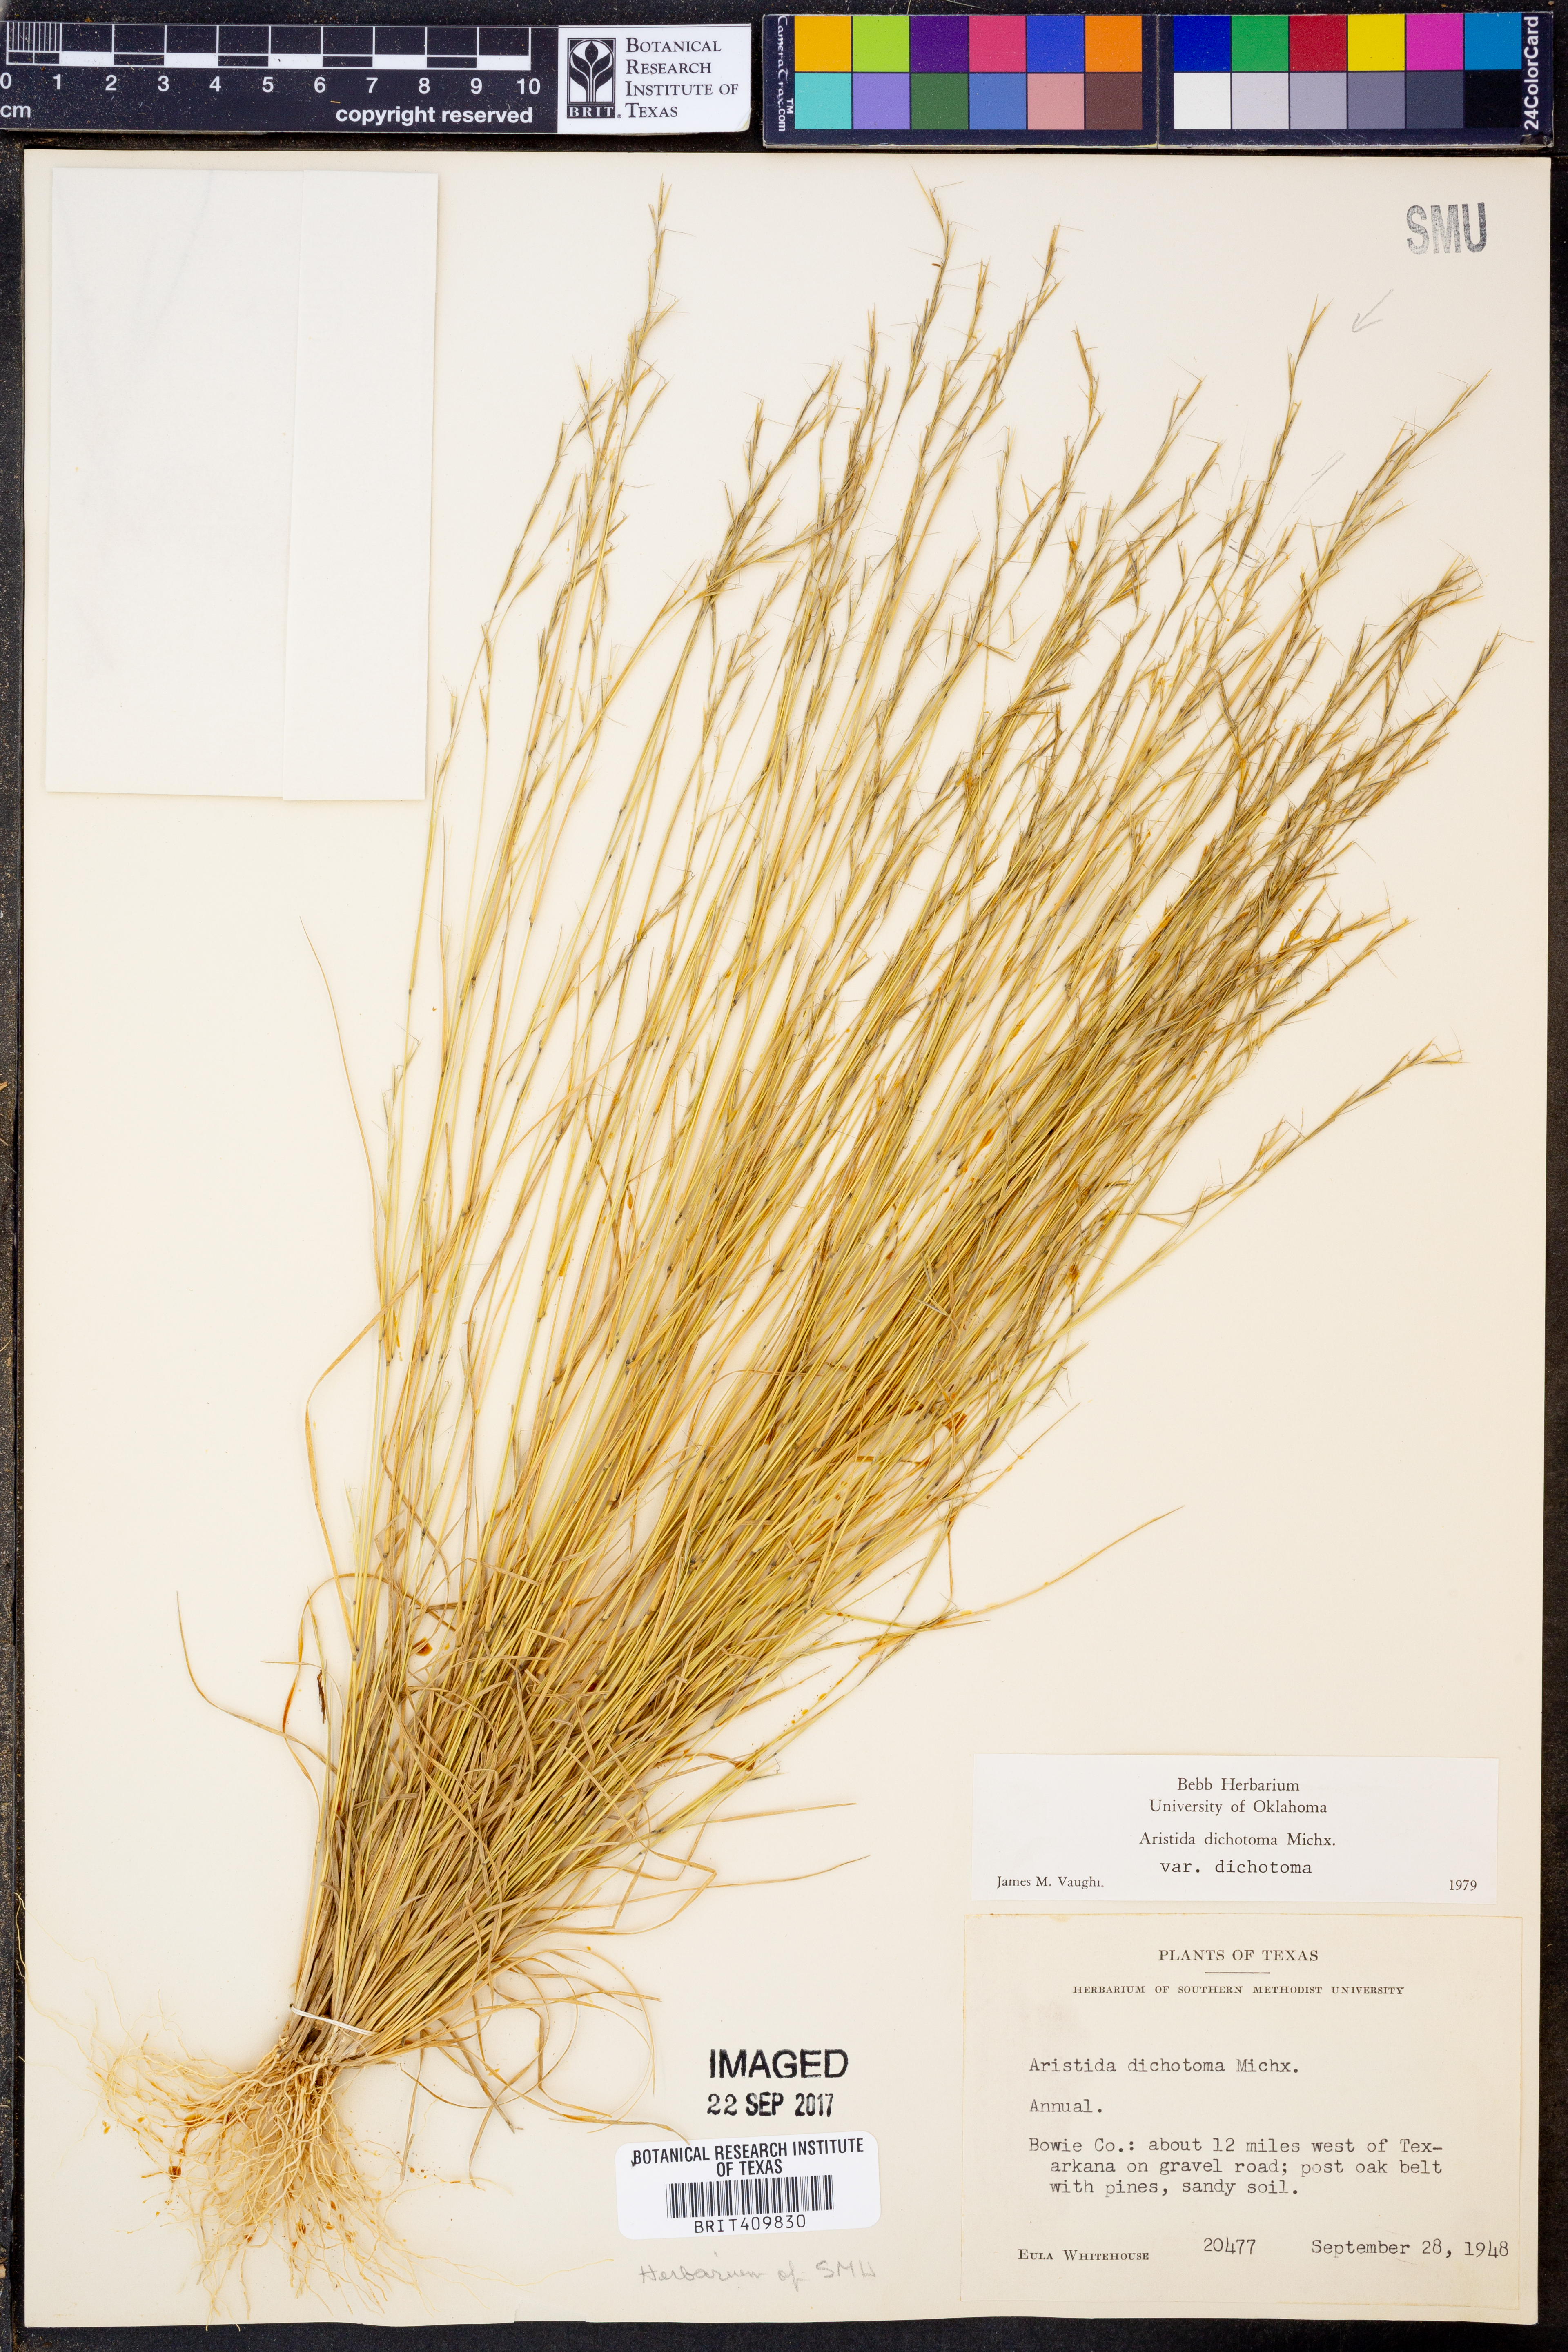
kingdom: Plantae
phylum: Tracheophyta
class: Liliopsida
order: Poales
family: Poaceae
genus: Aristida
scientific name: Aristida dichotoma
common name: Churchmouse three-awn
